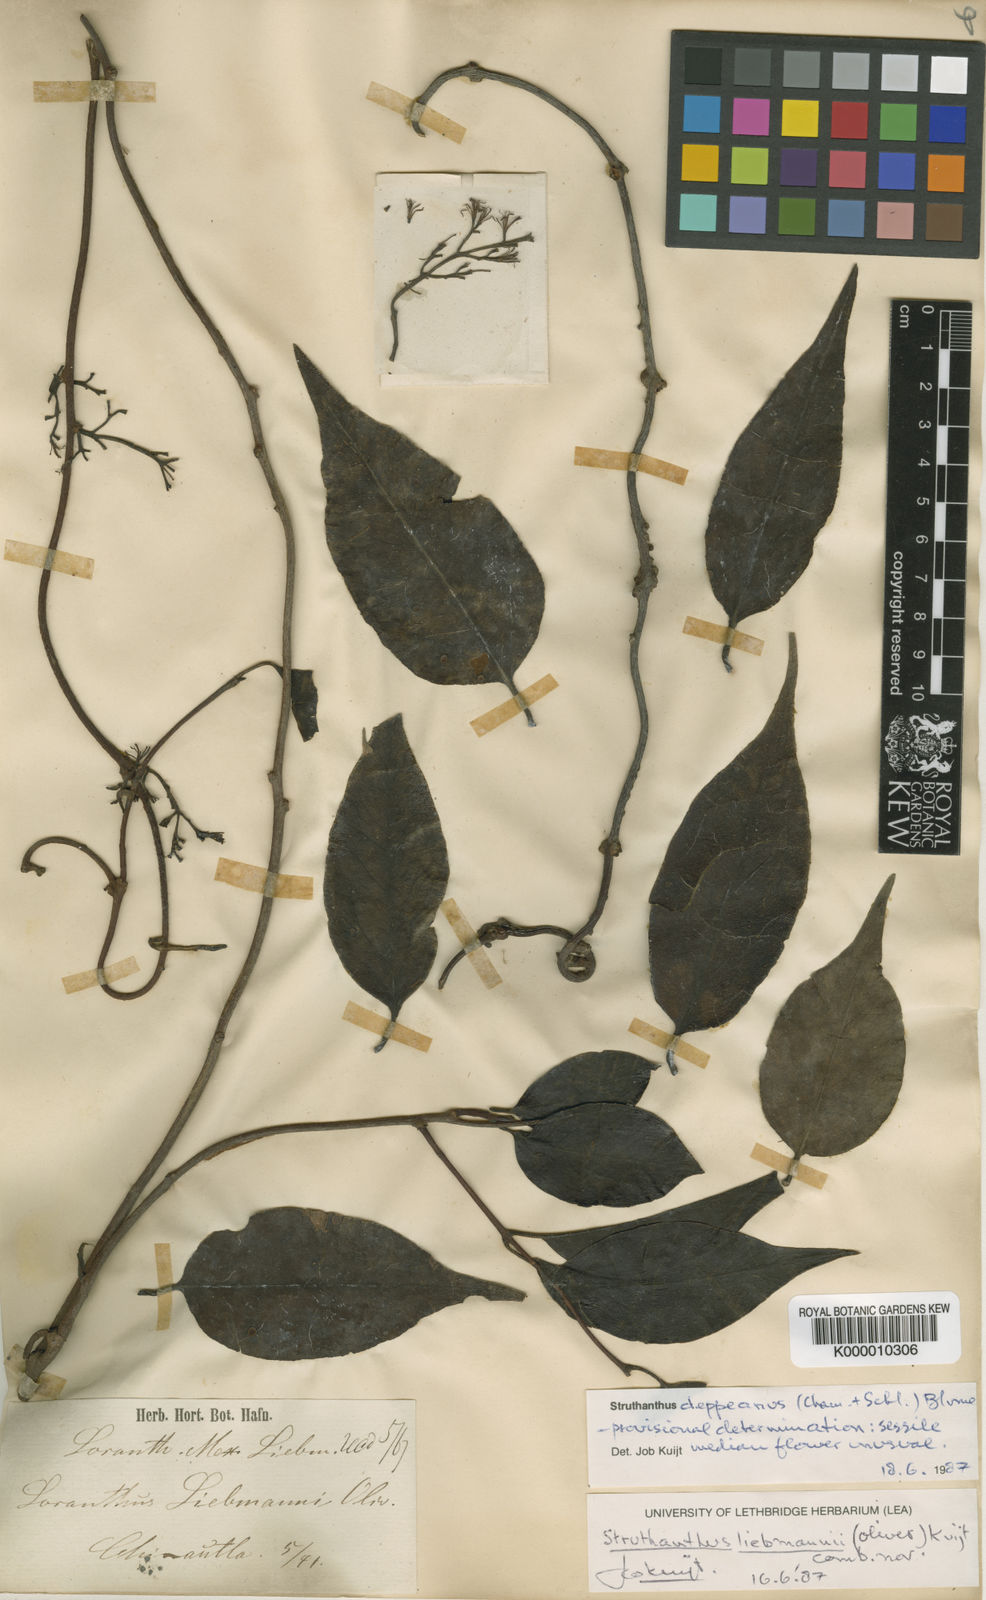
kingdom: Plantae
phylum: Tracheophyta
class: Magnoliopsida
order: Santalales
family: Loranthaceae
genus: Struthanthus
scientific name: Struthanthus
